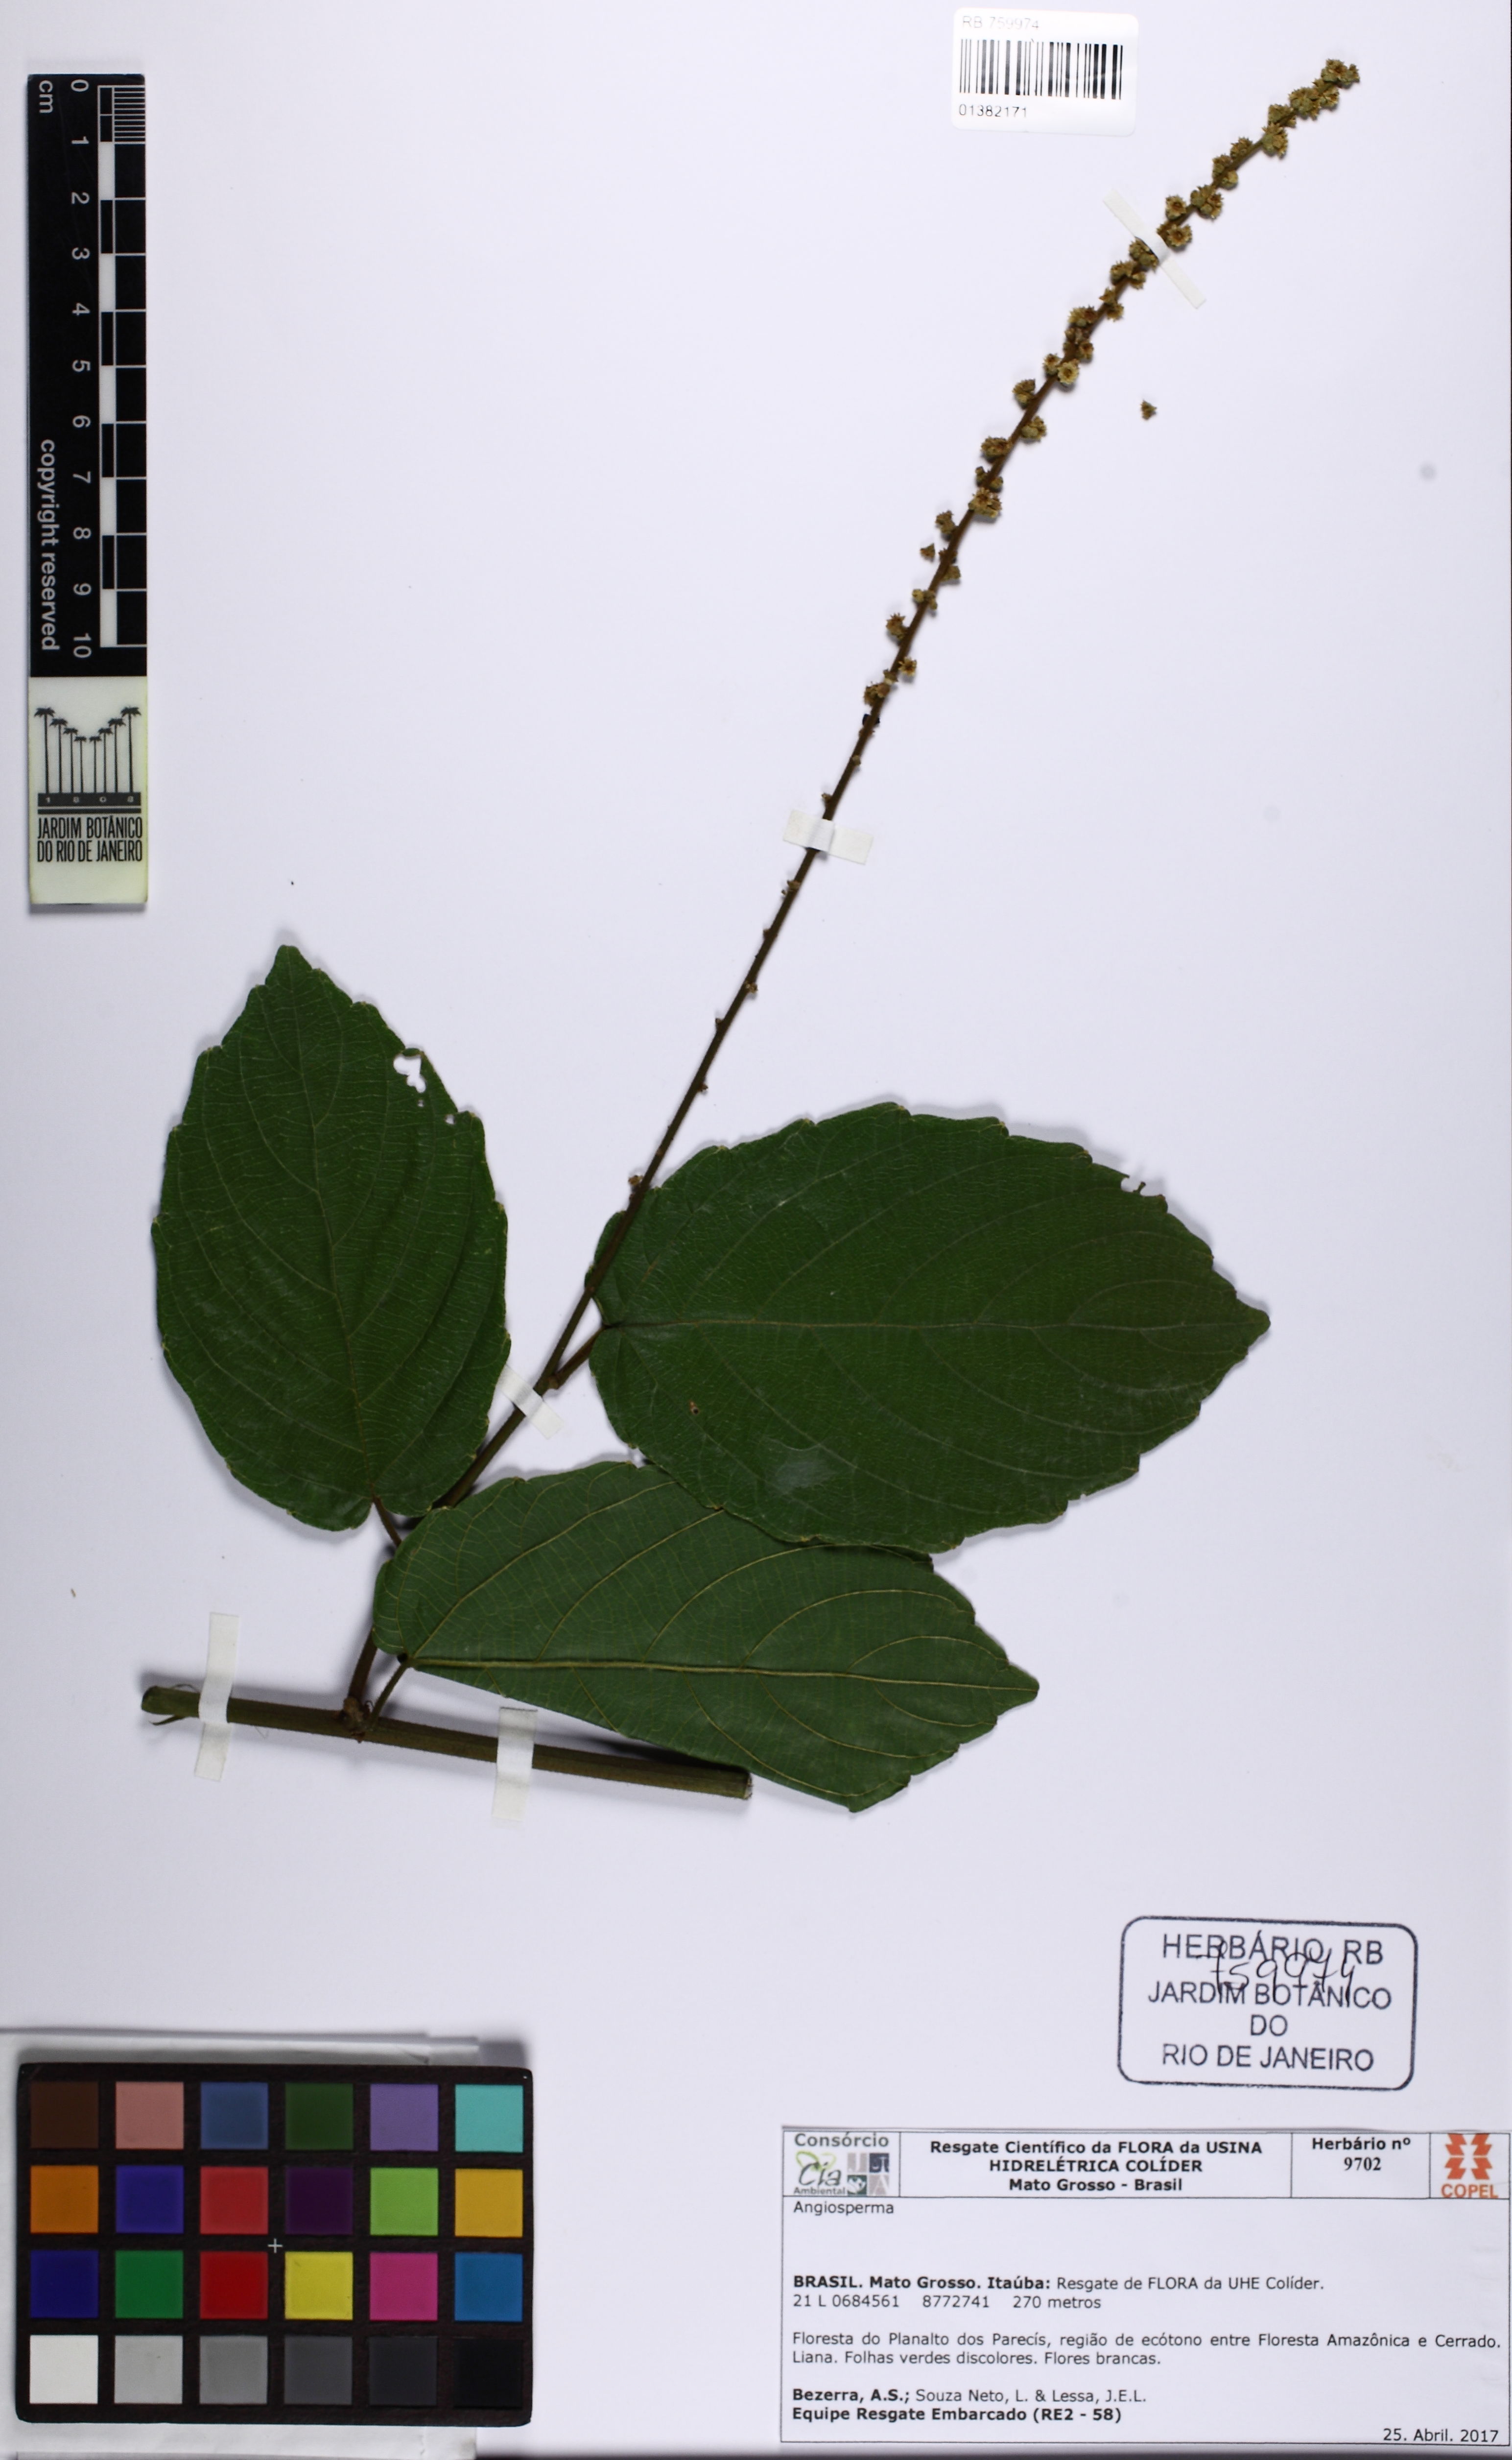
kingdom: Plantae
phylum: Tracheophyta
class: Magnoliopsida
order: Rosales
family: Rhamnaceae
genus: Gouania
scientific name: Gouania
